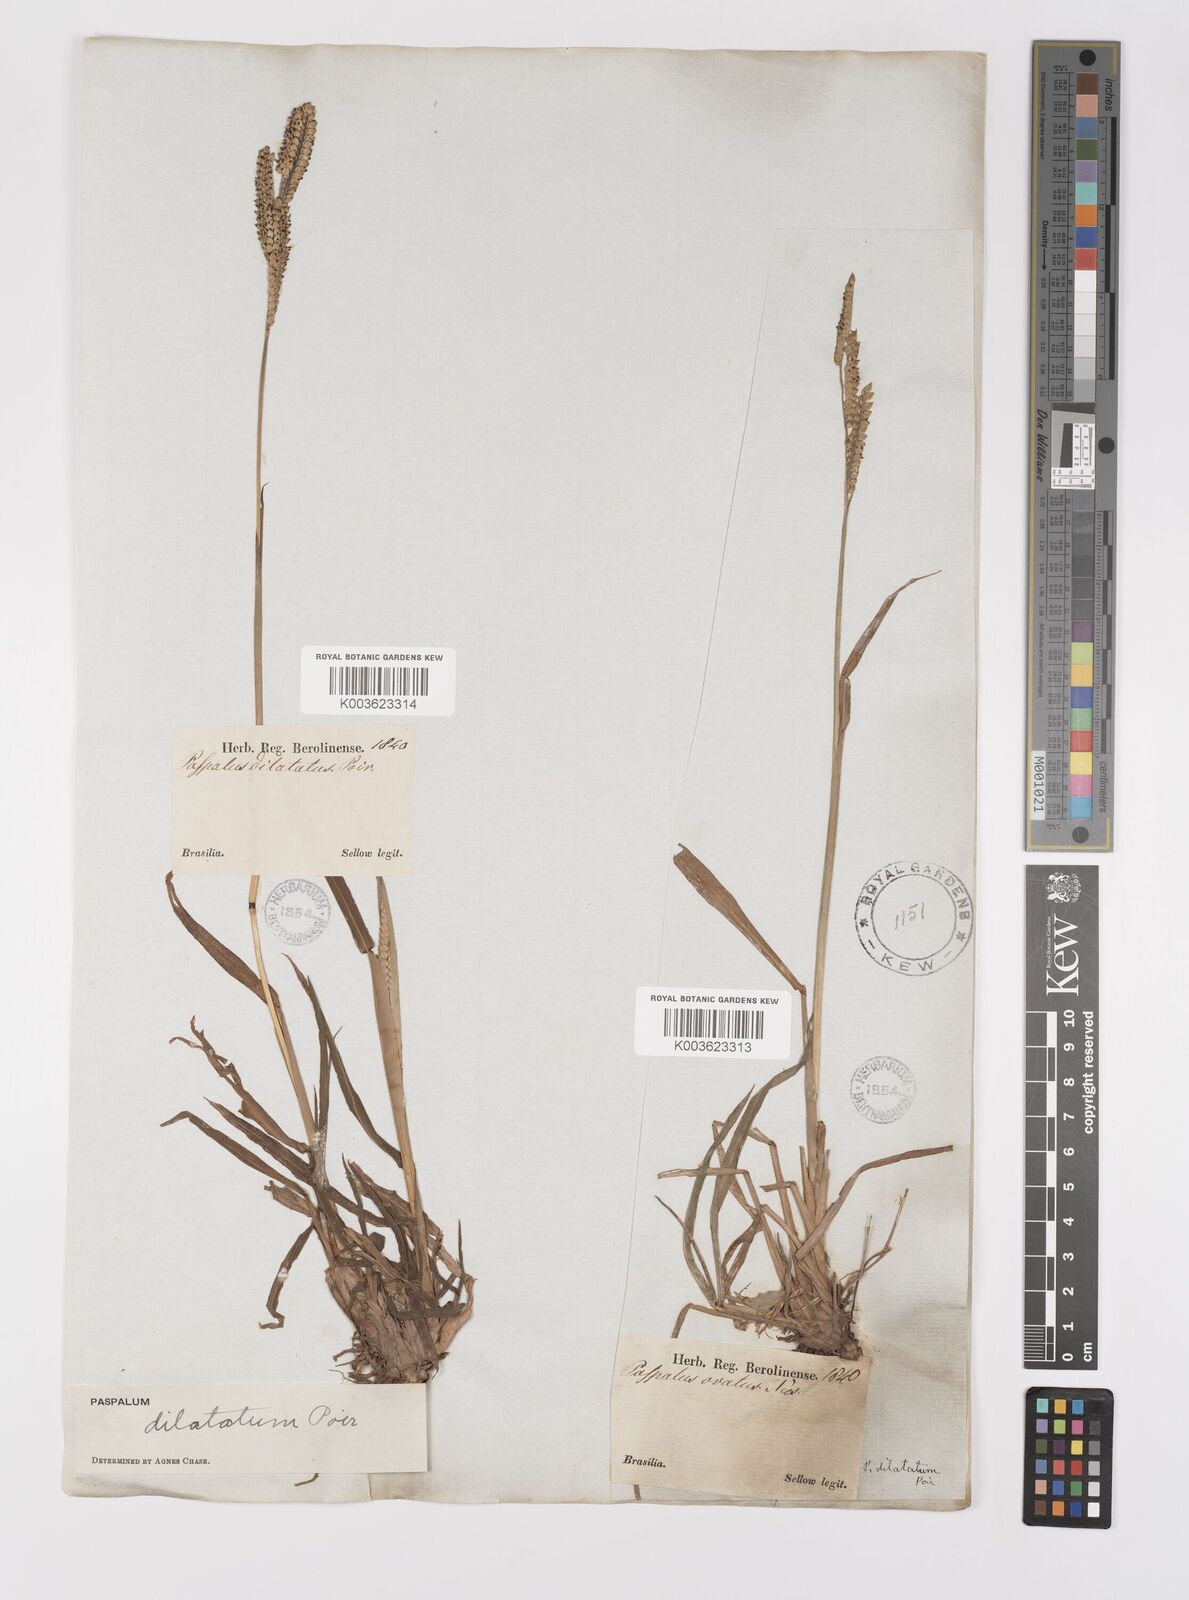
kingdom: Plantae
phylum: Tracheophyta
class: Liliopsida
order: Poales
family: Poaceae
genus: Paspalum
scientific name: Paspalum dilatatum
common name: Dallisgrass
